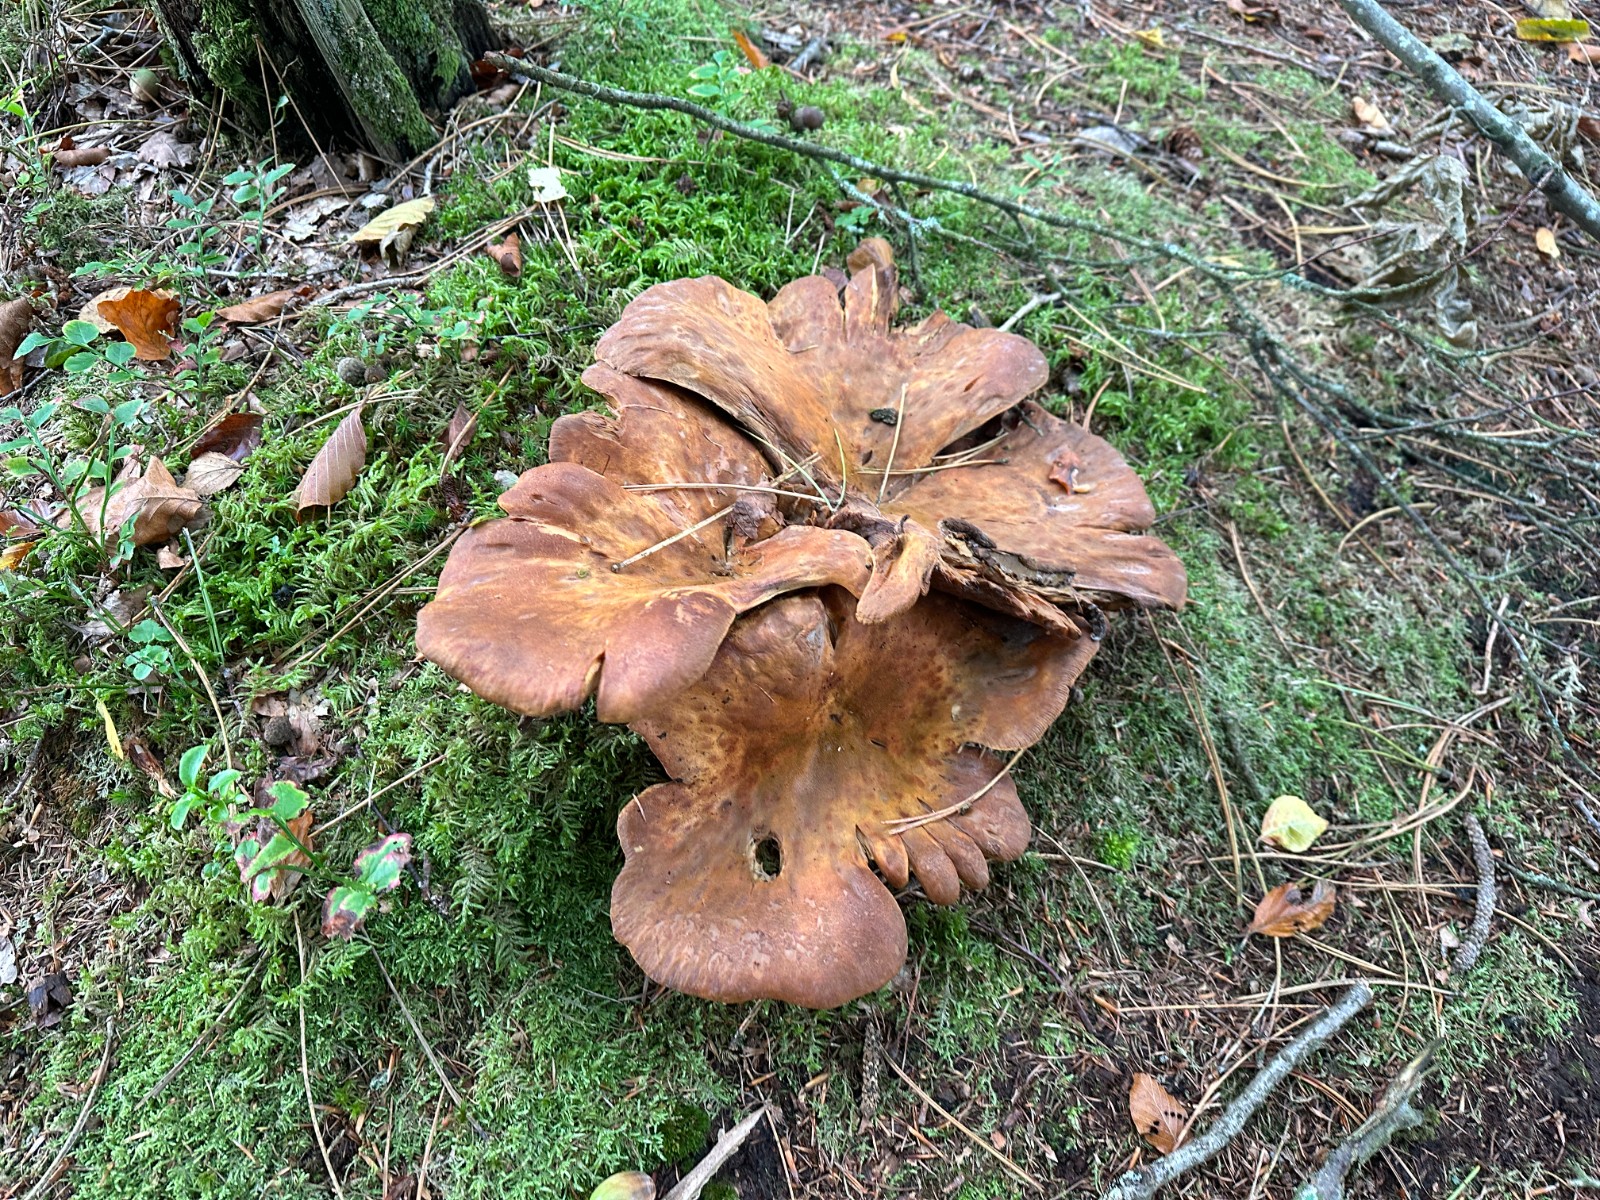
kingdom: Fungi
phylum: Basidiomycota
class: Agaricomycetes
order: Boletales
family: Tapinellaceae
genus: Tapinella
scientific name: Tapinella atrotomentosa
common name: sortfiltet viftesvamp
